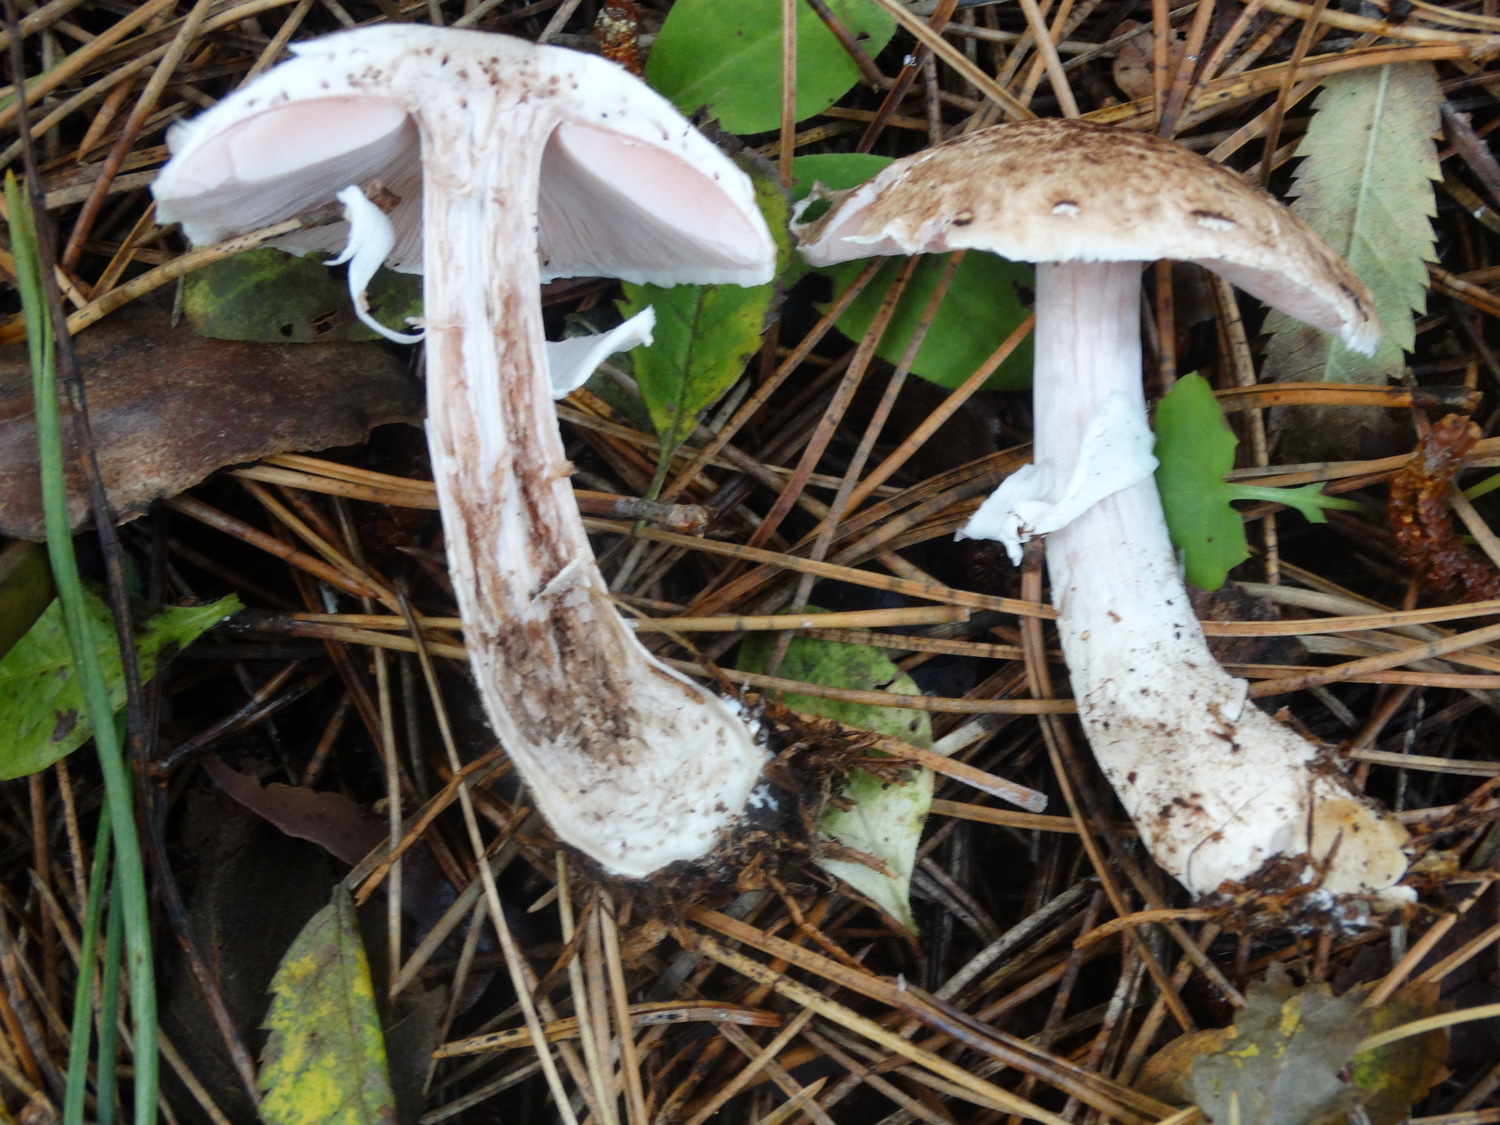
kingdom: Fungi
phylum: Basidiomycota
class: Agaricomycetes
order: Agaricales
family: Agaricaceae
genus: Agaricus
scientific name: Agaricus impudicus
